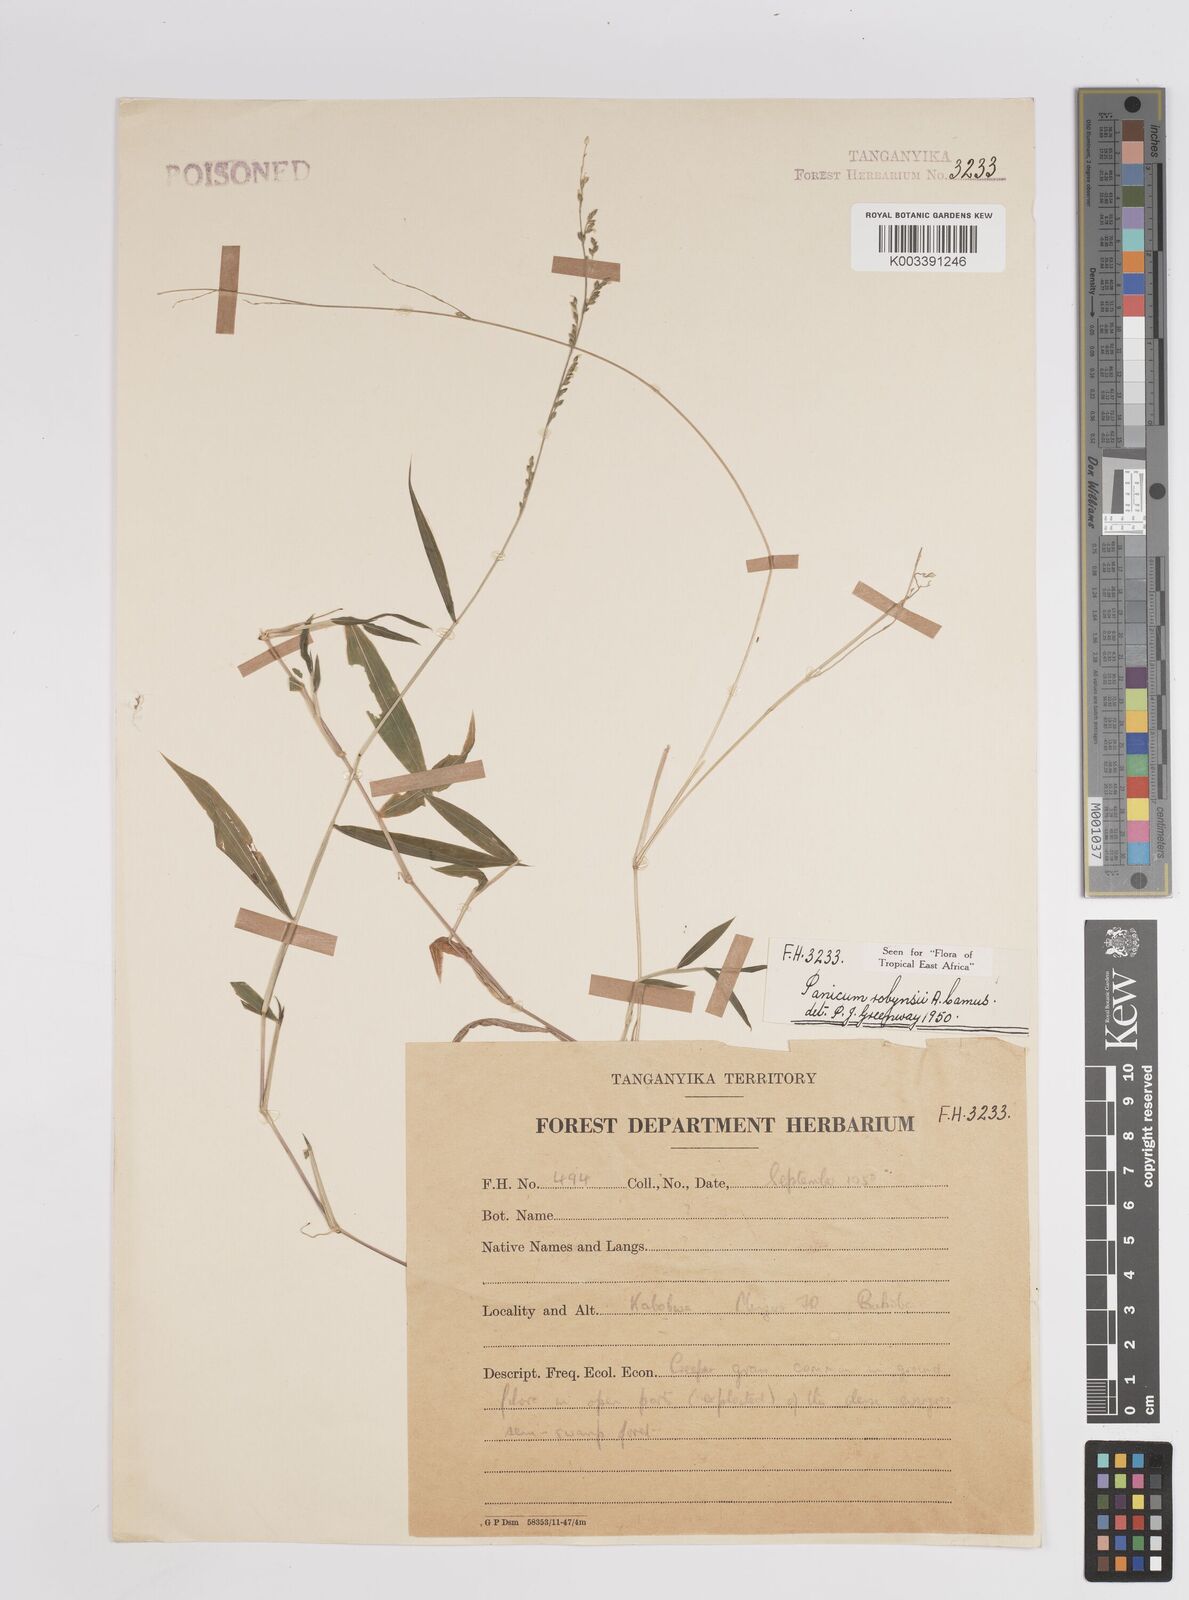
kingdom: Plantae
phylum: Tracheophyta
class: Liliopsida
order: Poales
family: Poaceae
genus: Panicum
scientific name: Panicum robynsii
